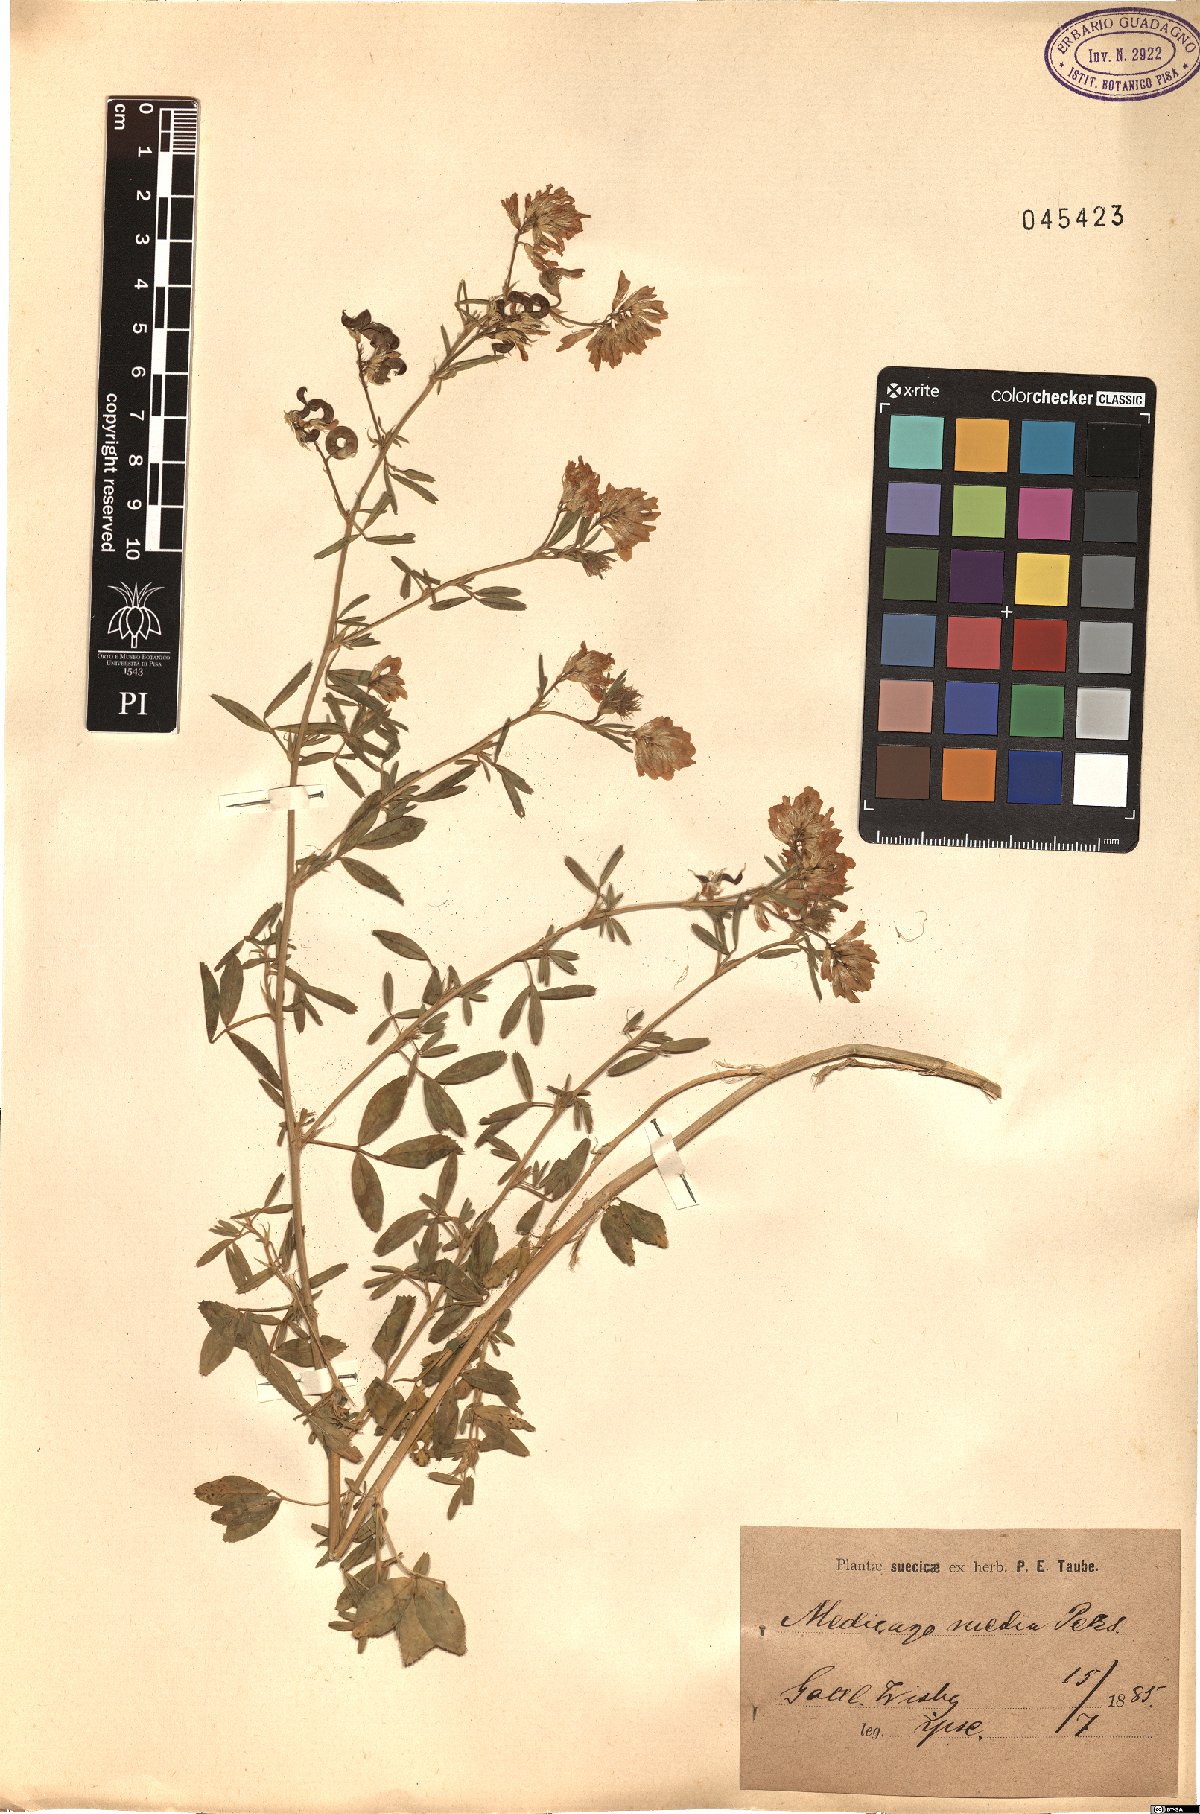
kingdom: Plantae
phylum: Tracheophyta
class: Magnoliopsida
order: Fabales
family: Fabaceae
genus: Medicago
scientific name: Medicago varia
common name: Sand lucerne
